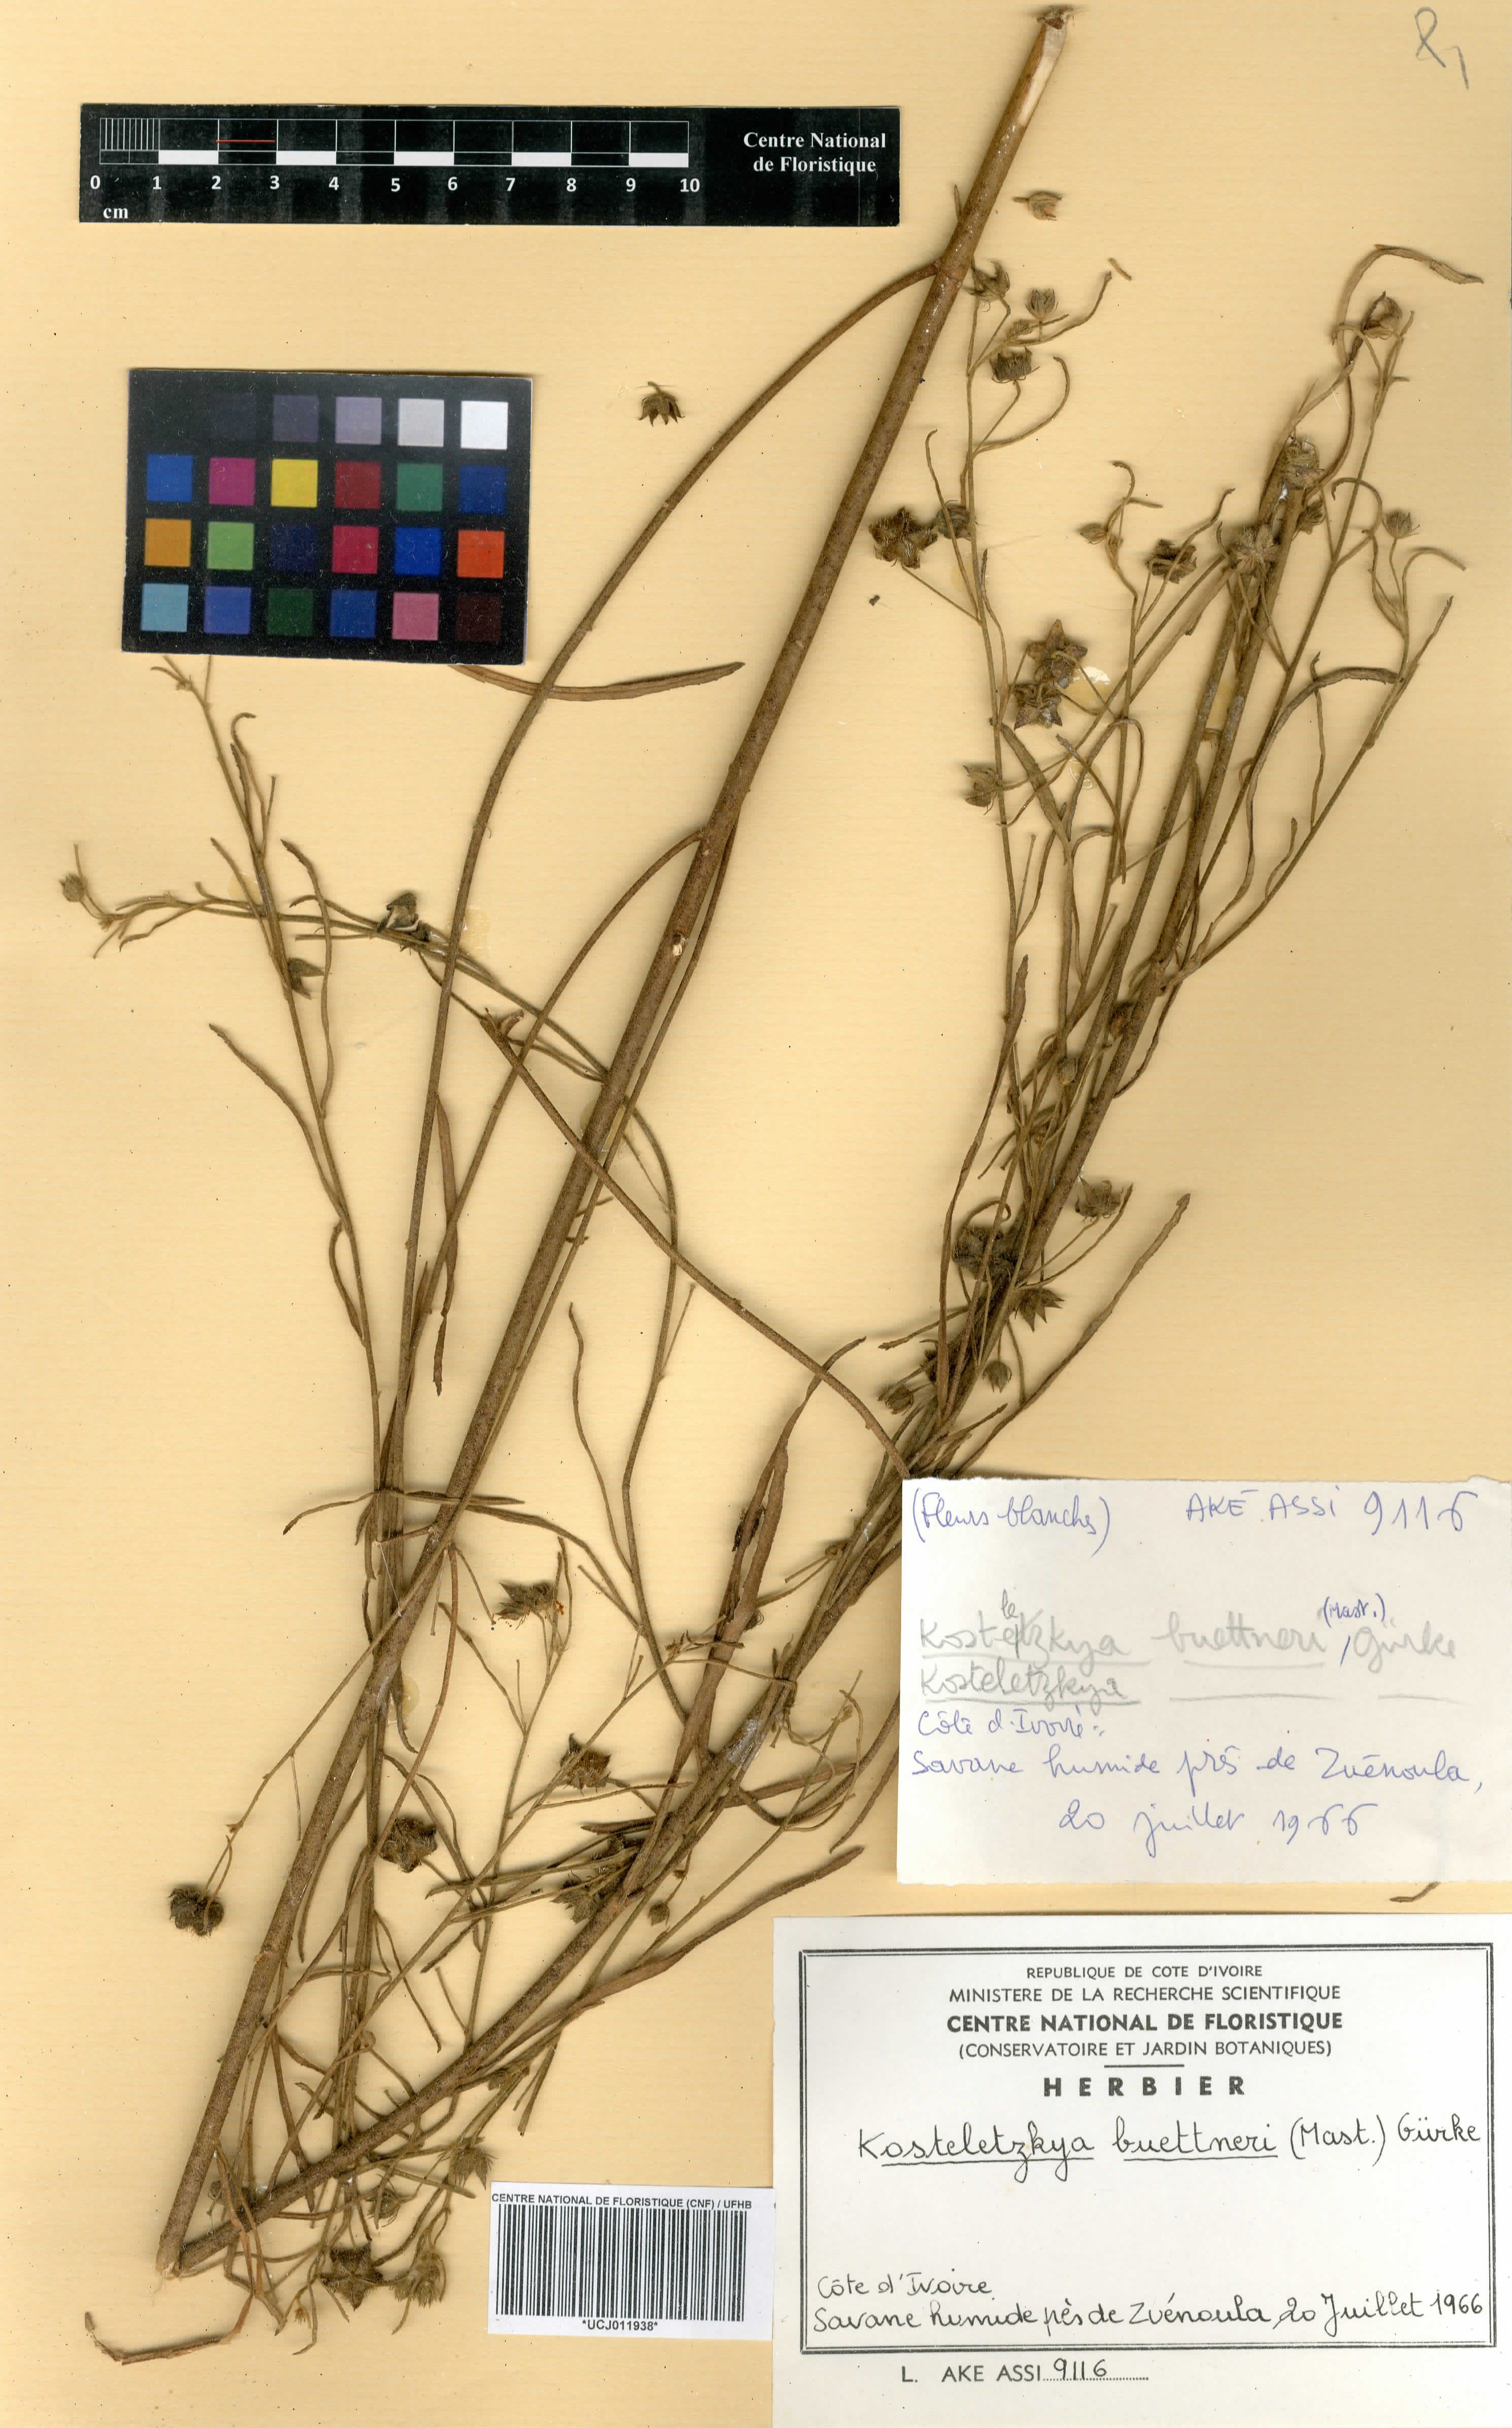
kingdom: Plantae
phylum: Tracheophyta
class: Magnoliopsida
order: Malvales
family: Malvaceae
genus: Kosteletzkya
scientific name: Kosteletzkya buettneri
